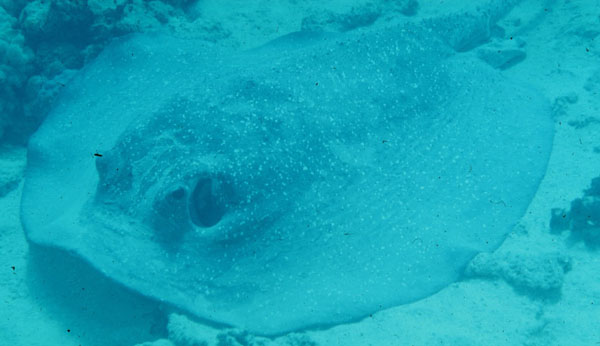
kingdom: Animalia
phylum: Chordata
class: Elasmobranchii
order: Myliobatiformes
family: Dasyatidae
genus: Urogymnus
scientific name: Urogymnus asperrimus
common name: Porcupine ray
